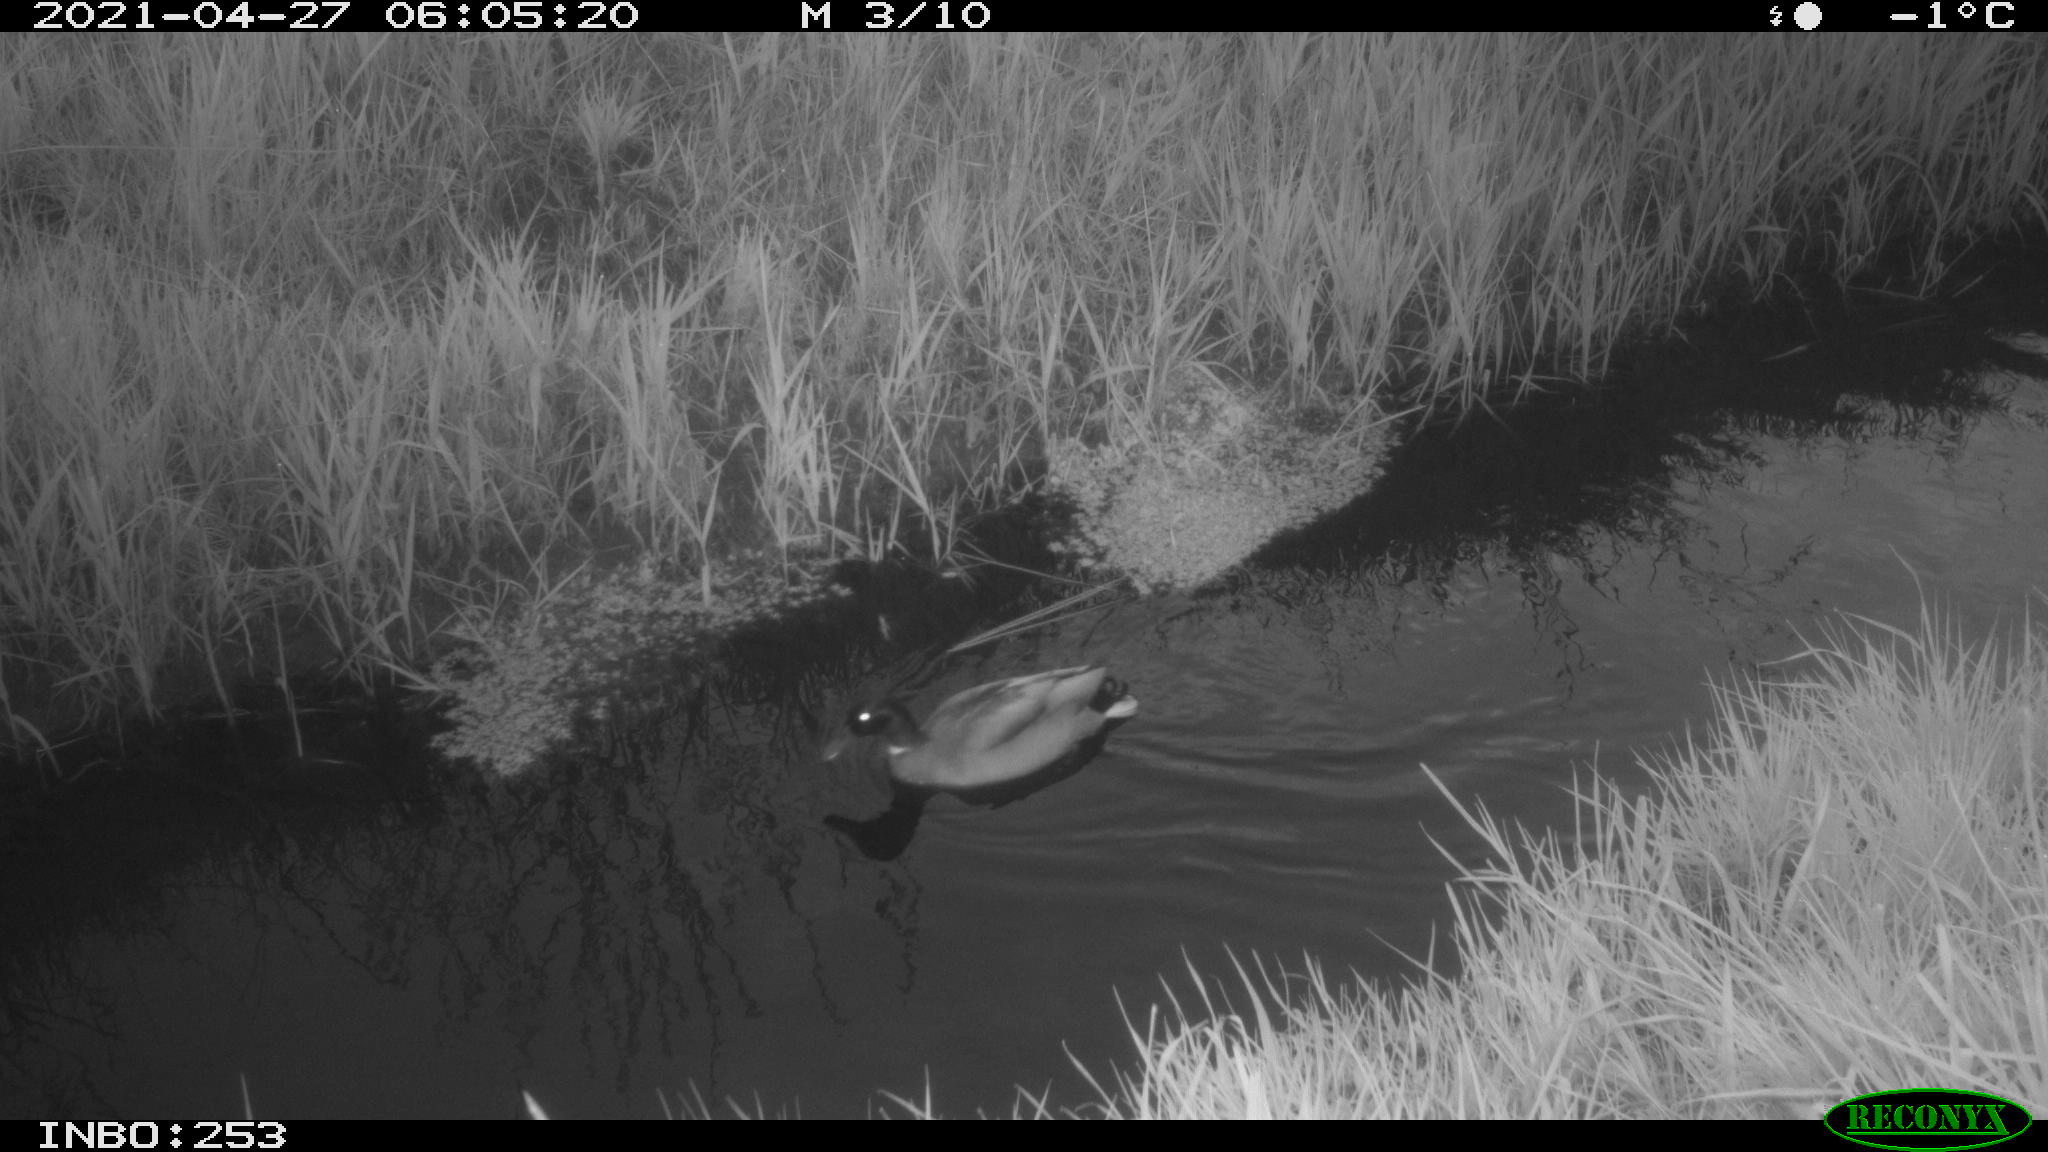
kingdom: Animalia
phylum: Chordata
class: Aves
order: Gruiformes
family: Rallidae
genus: Gallinula
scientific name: Gallinula chloropus
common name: Common moorhen
